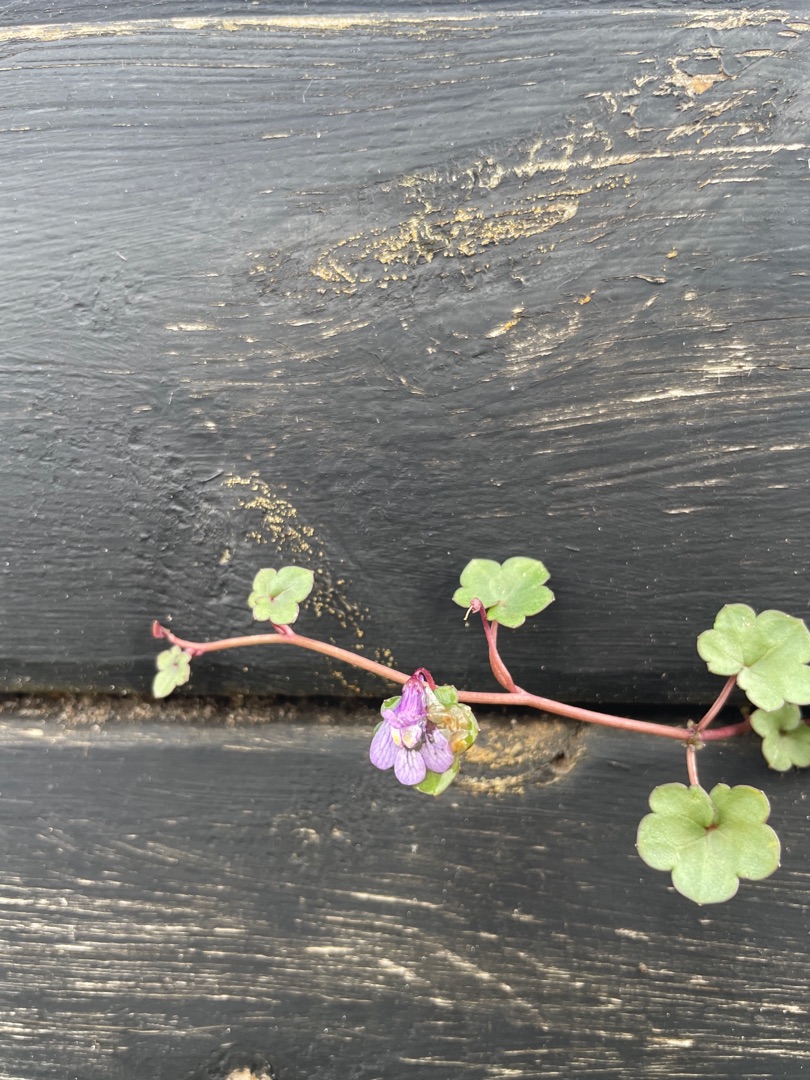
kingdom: Plantae
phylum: Tracheophyta
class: Magnoliopsida
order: Lamiales
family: Plantaginaceae
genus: Cymbalaria
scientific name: Cymbalaria muralis
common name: Vedbend-torskemund
